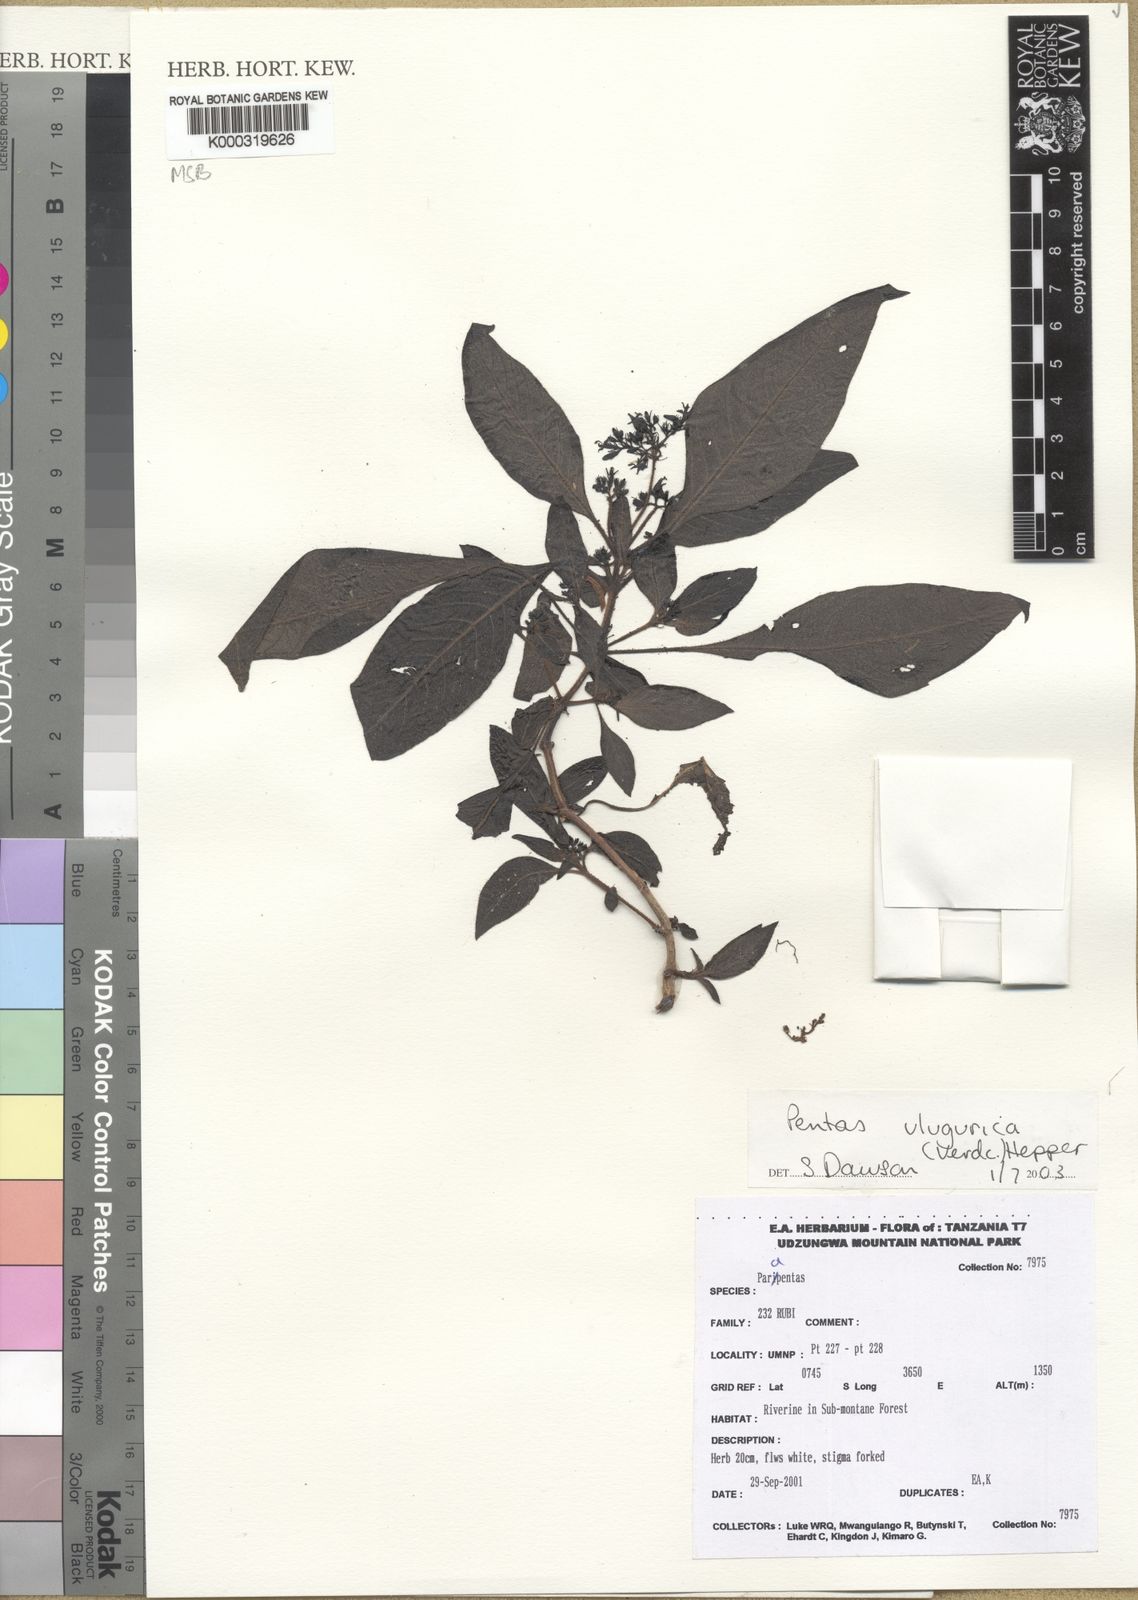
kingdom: Plantae
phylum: Tracheophyta
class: Magnoliopsida
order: Gentianales
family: Rubiaceae
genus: Phyllopentas
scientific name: Phyllopentas ulugurica
